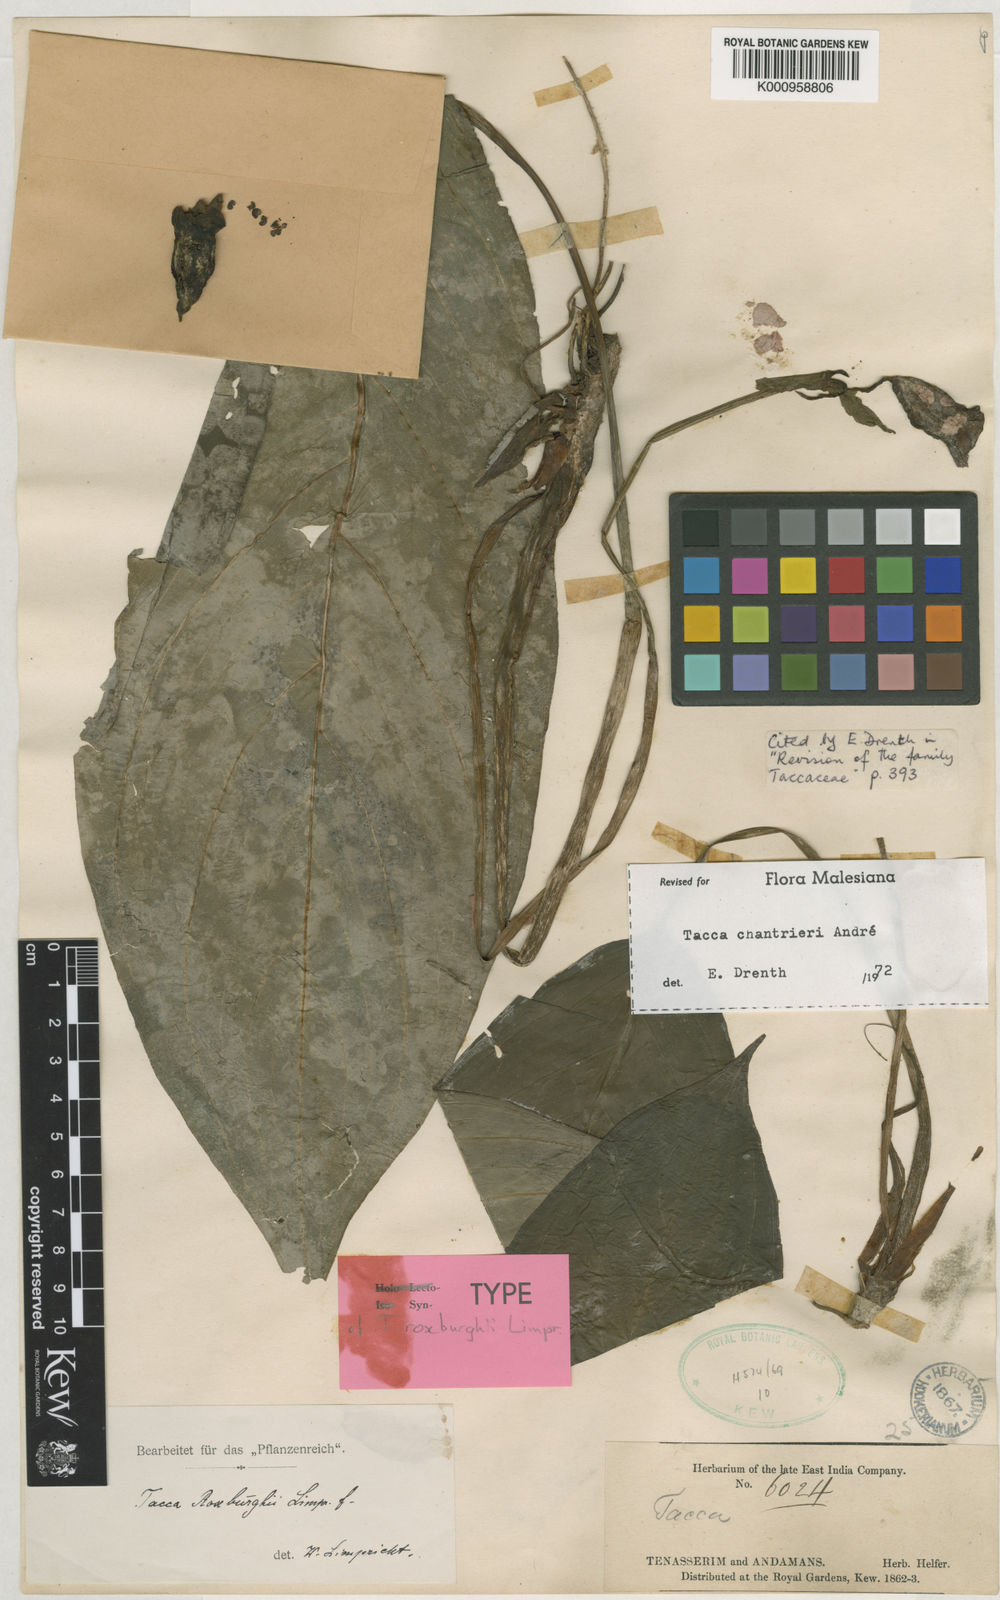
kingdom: Plantae
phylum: Tracheophyta
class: Liliopsida
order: Dioscoreales
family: Dioscoreaceae
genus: Tacca
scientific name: Tacca
